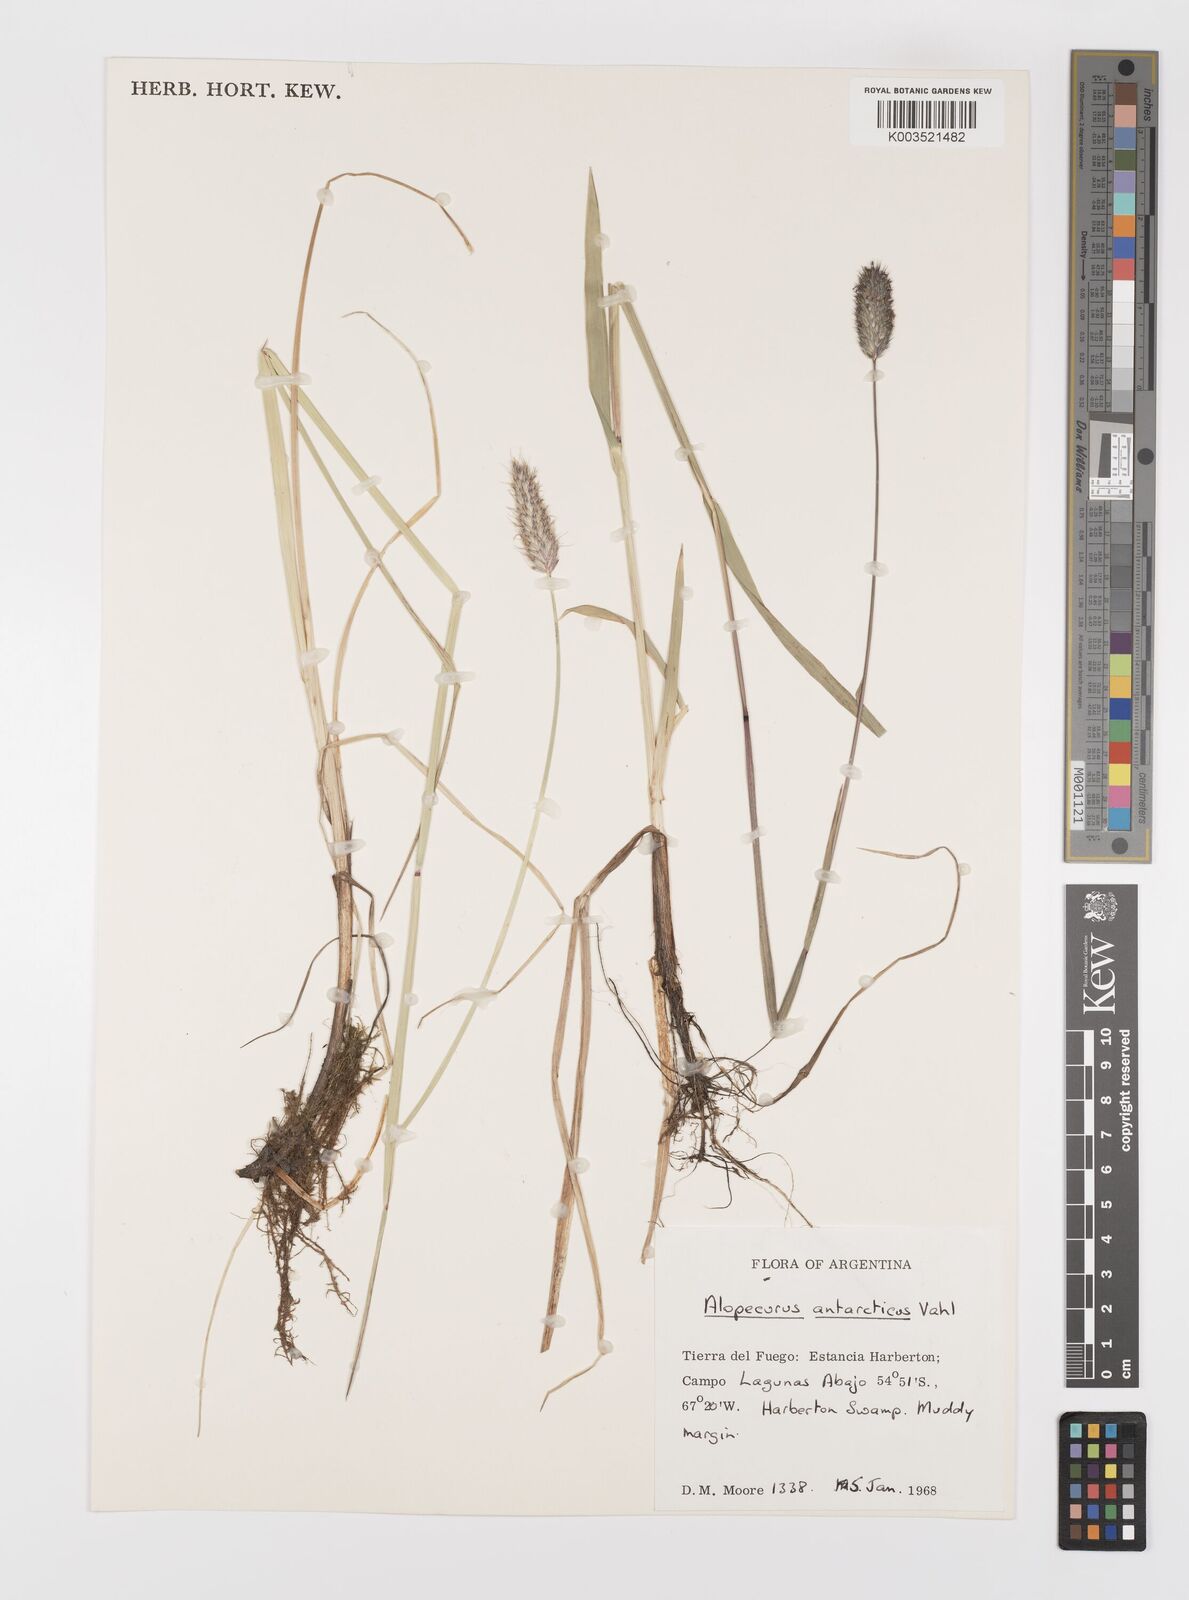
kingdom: Plantae
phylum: Tracheophyta
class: Liliopsida
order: Poales
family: Poaceae
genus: Alopecurus
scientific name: Alopecurus magellanicus
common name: Alpine foxtail
